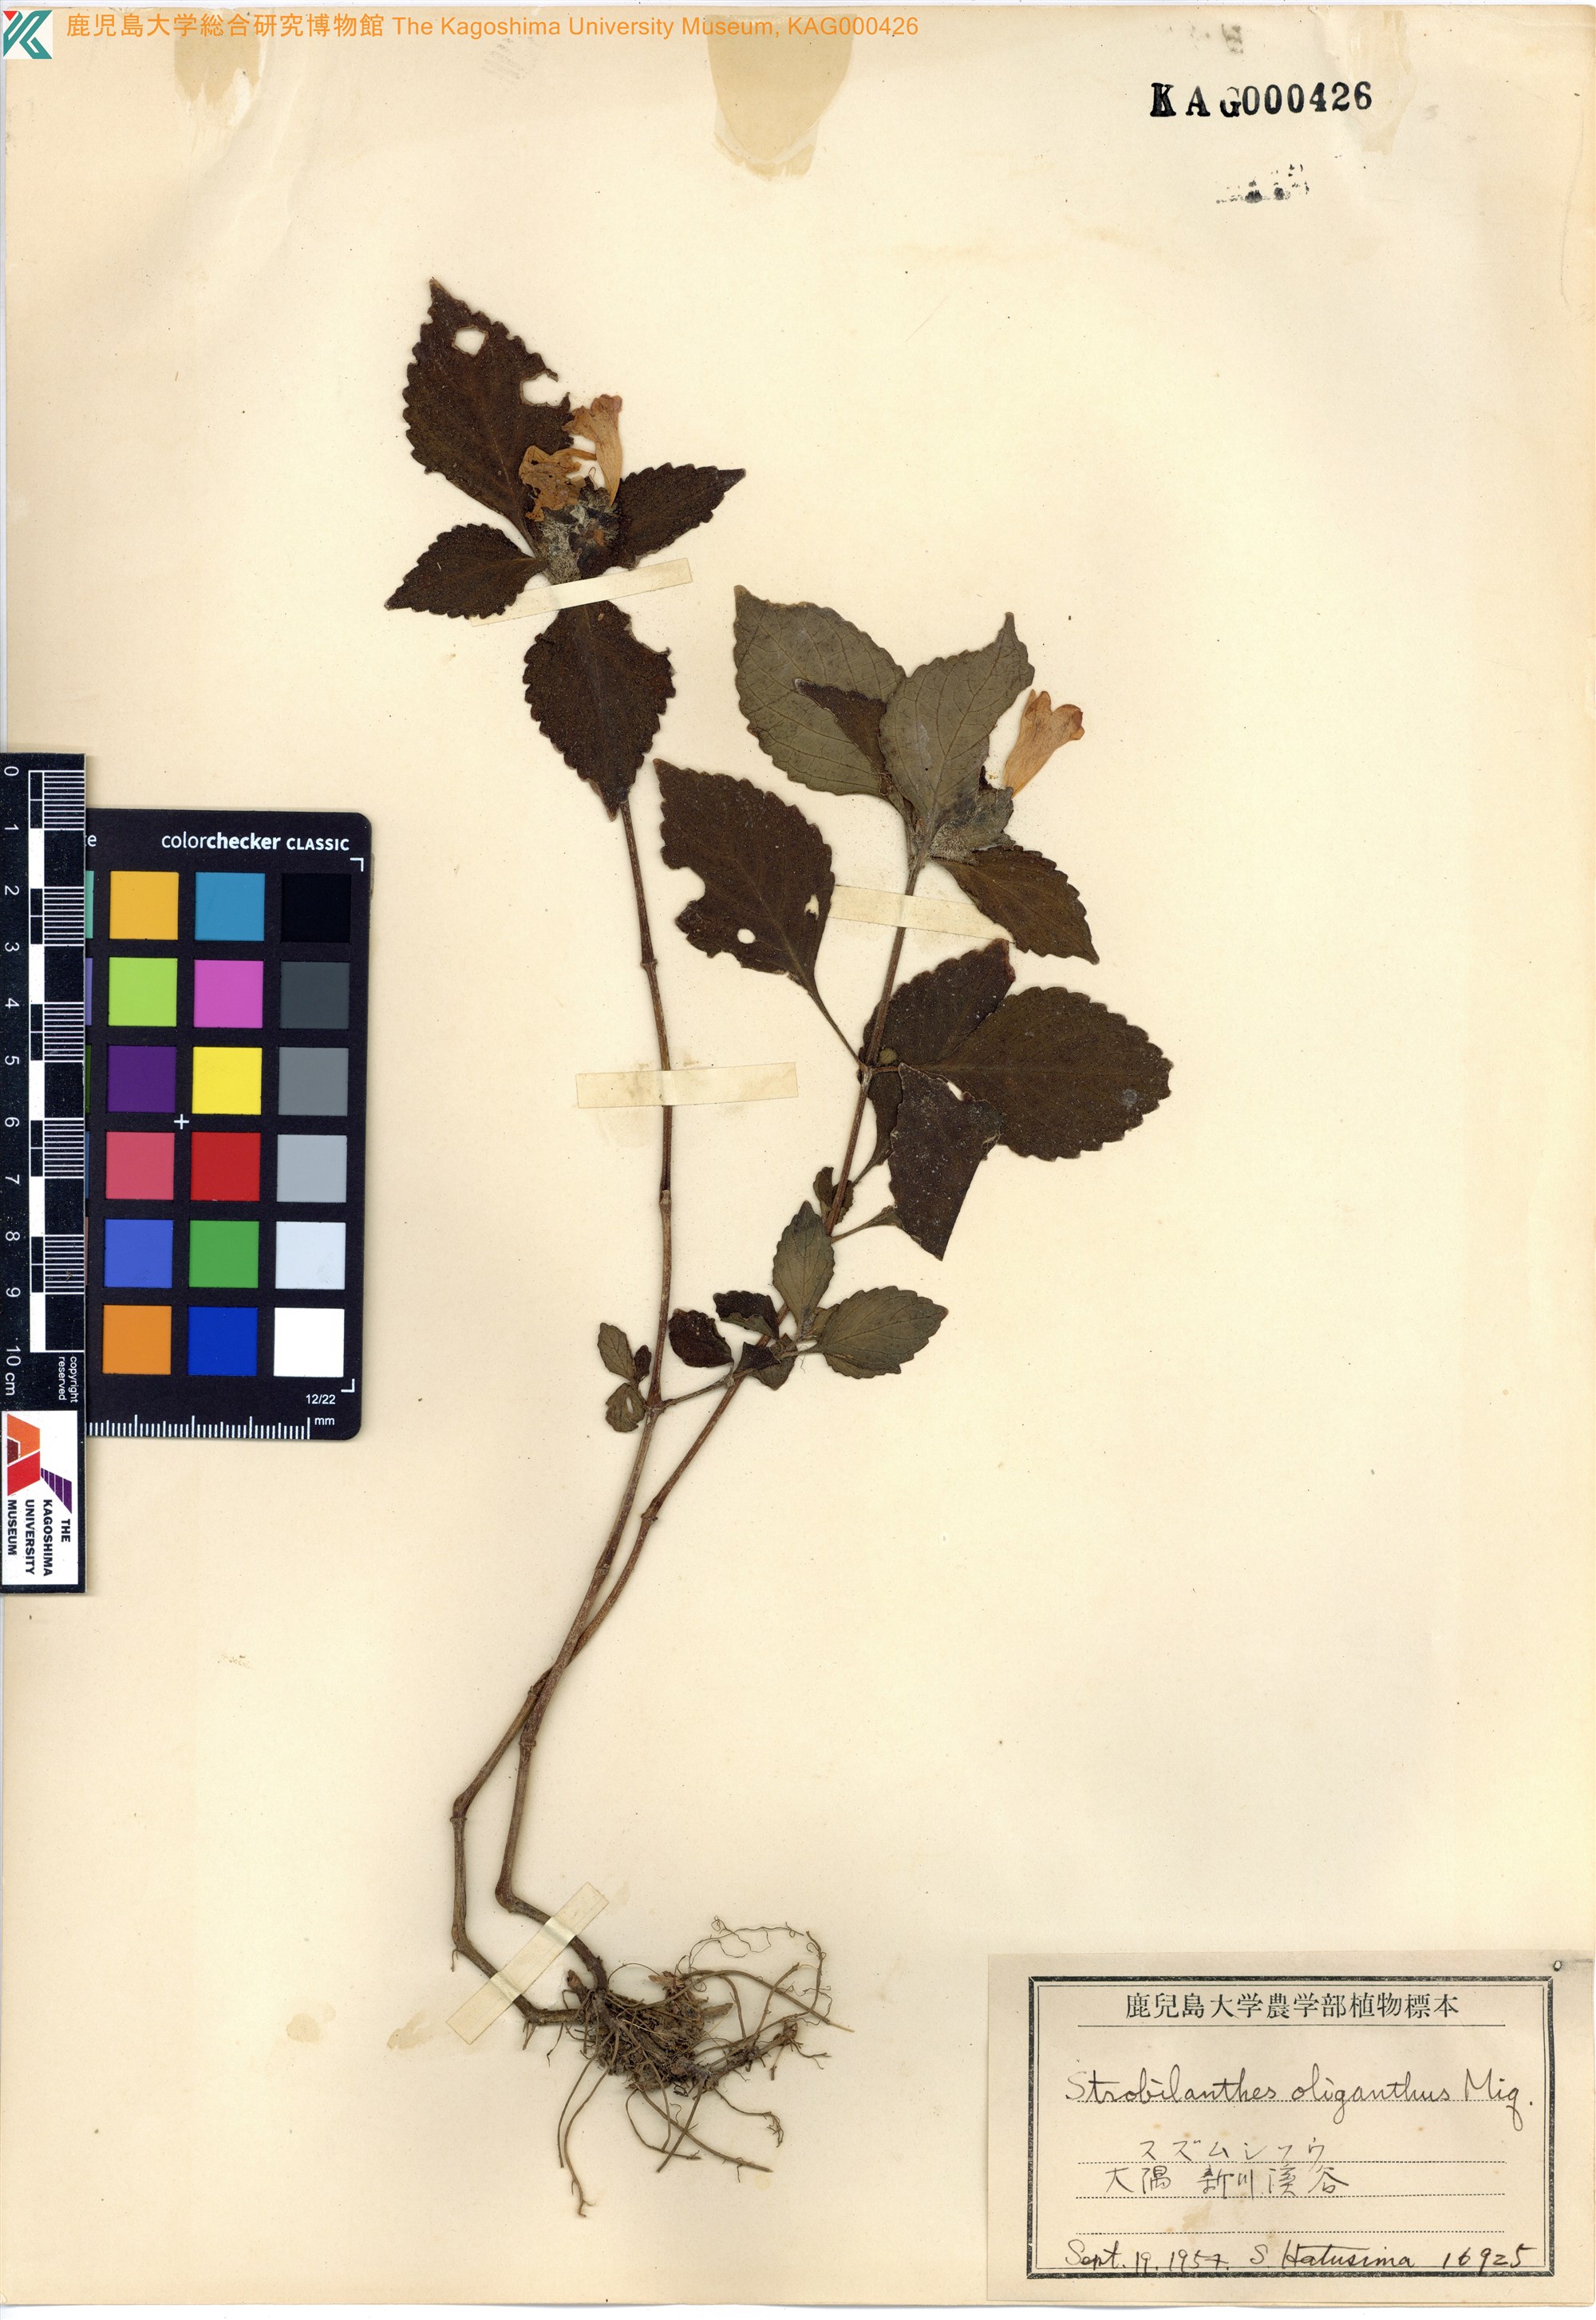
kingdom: Plantae
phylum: Tracheophyta
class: Magnoliopsida
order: Lamiales
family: Acanthaceae
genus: Strobilanthes
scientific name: Strobilanthes oligantha
